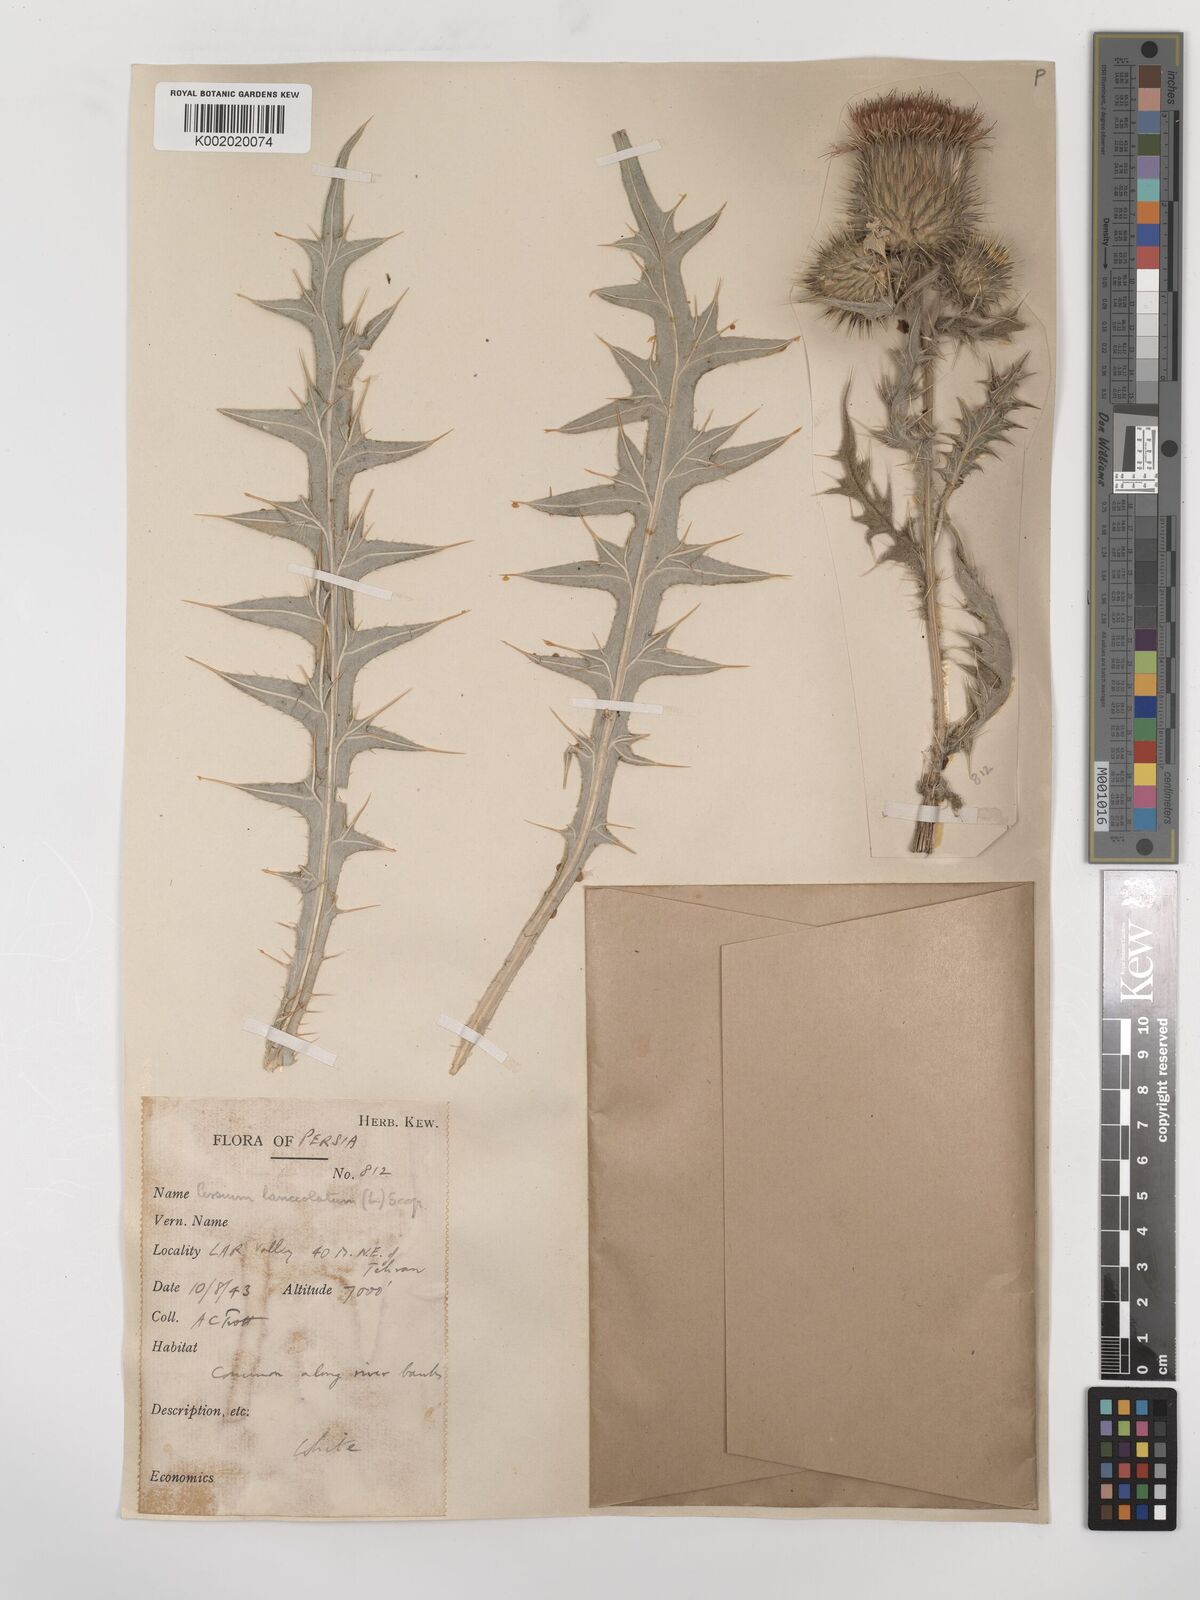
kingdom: Plantae
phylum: Tracheophyta
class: Magnoliopsida
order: Asterales
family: Asteraceae
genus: Cirsium
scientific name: Cirsium vulgare
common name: Bull thistle
